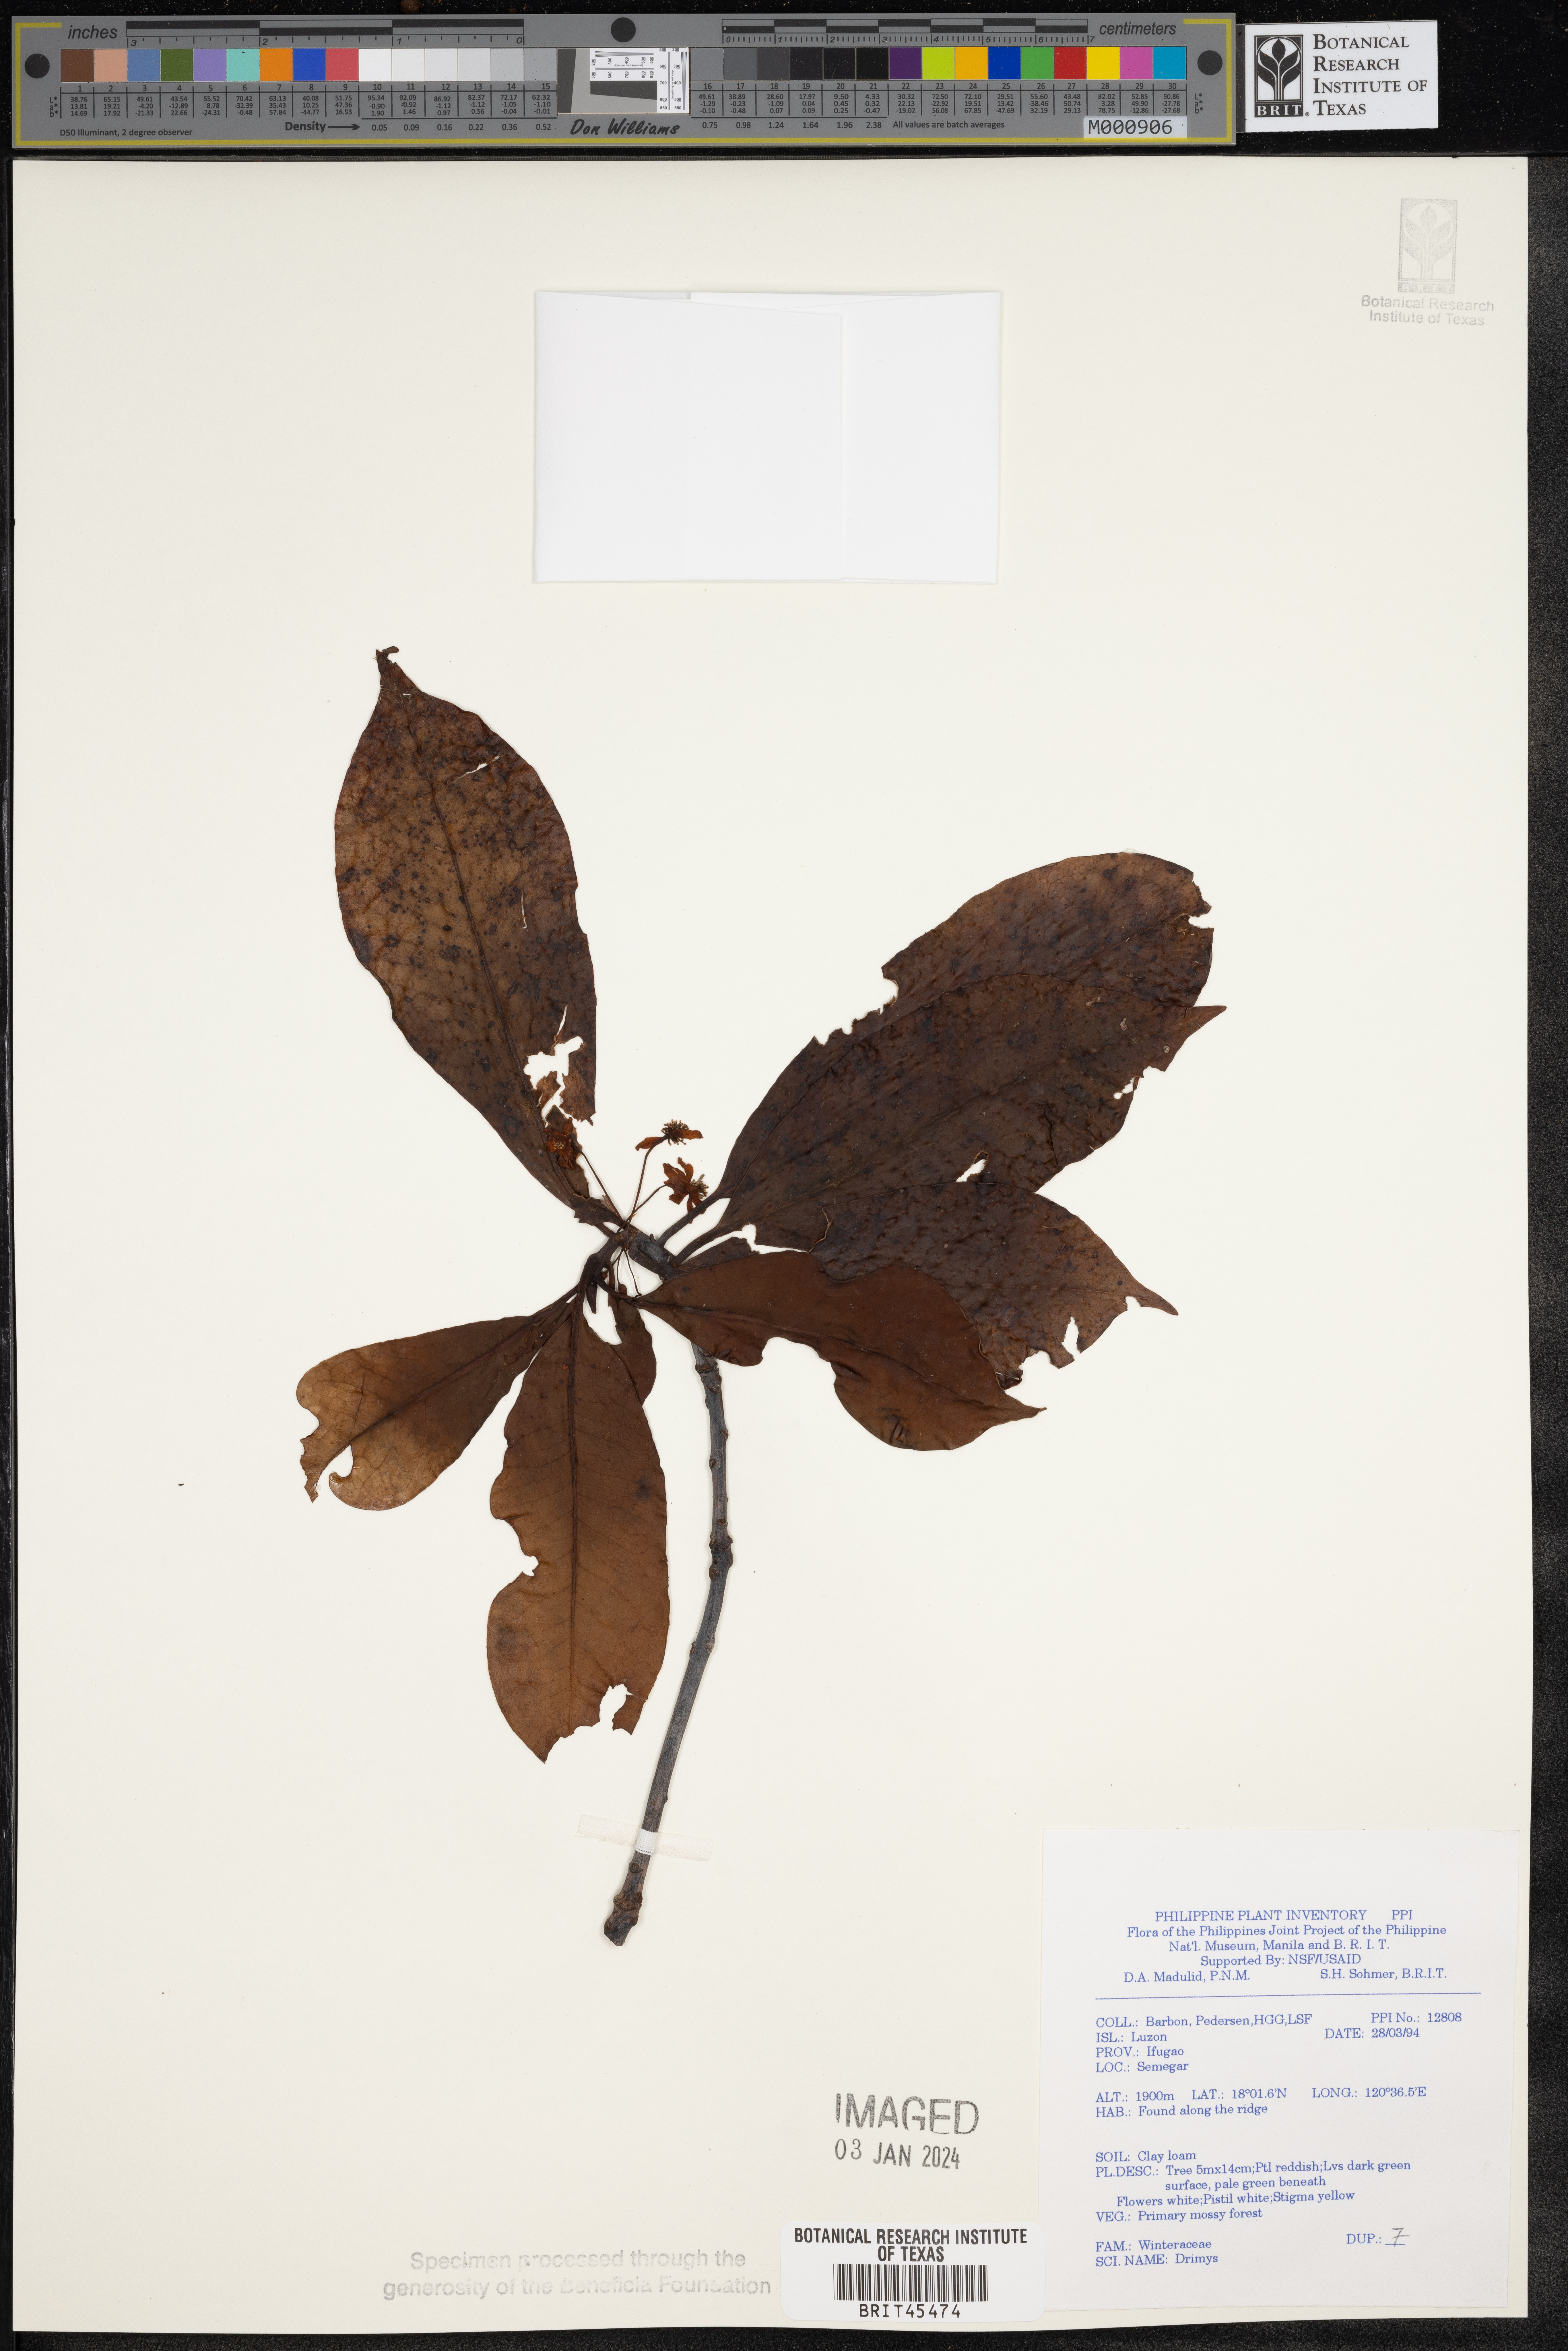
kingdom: Plantae
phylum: Tracheophyta
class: Magnoliopsida
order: Canellales
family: Winteraceae
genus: Drimys
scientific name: Drimys
